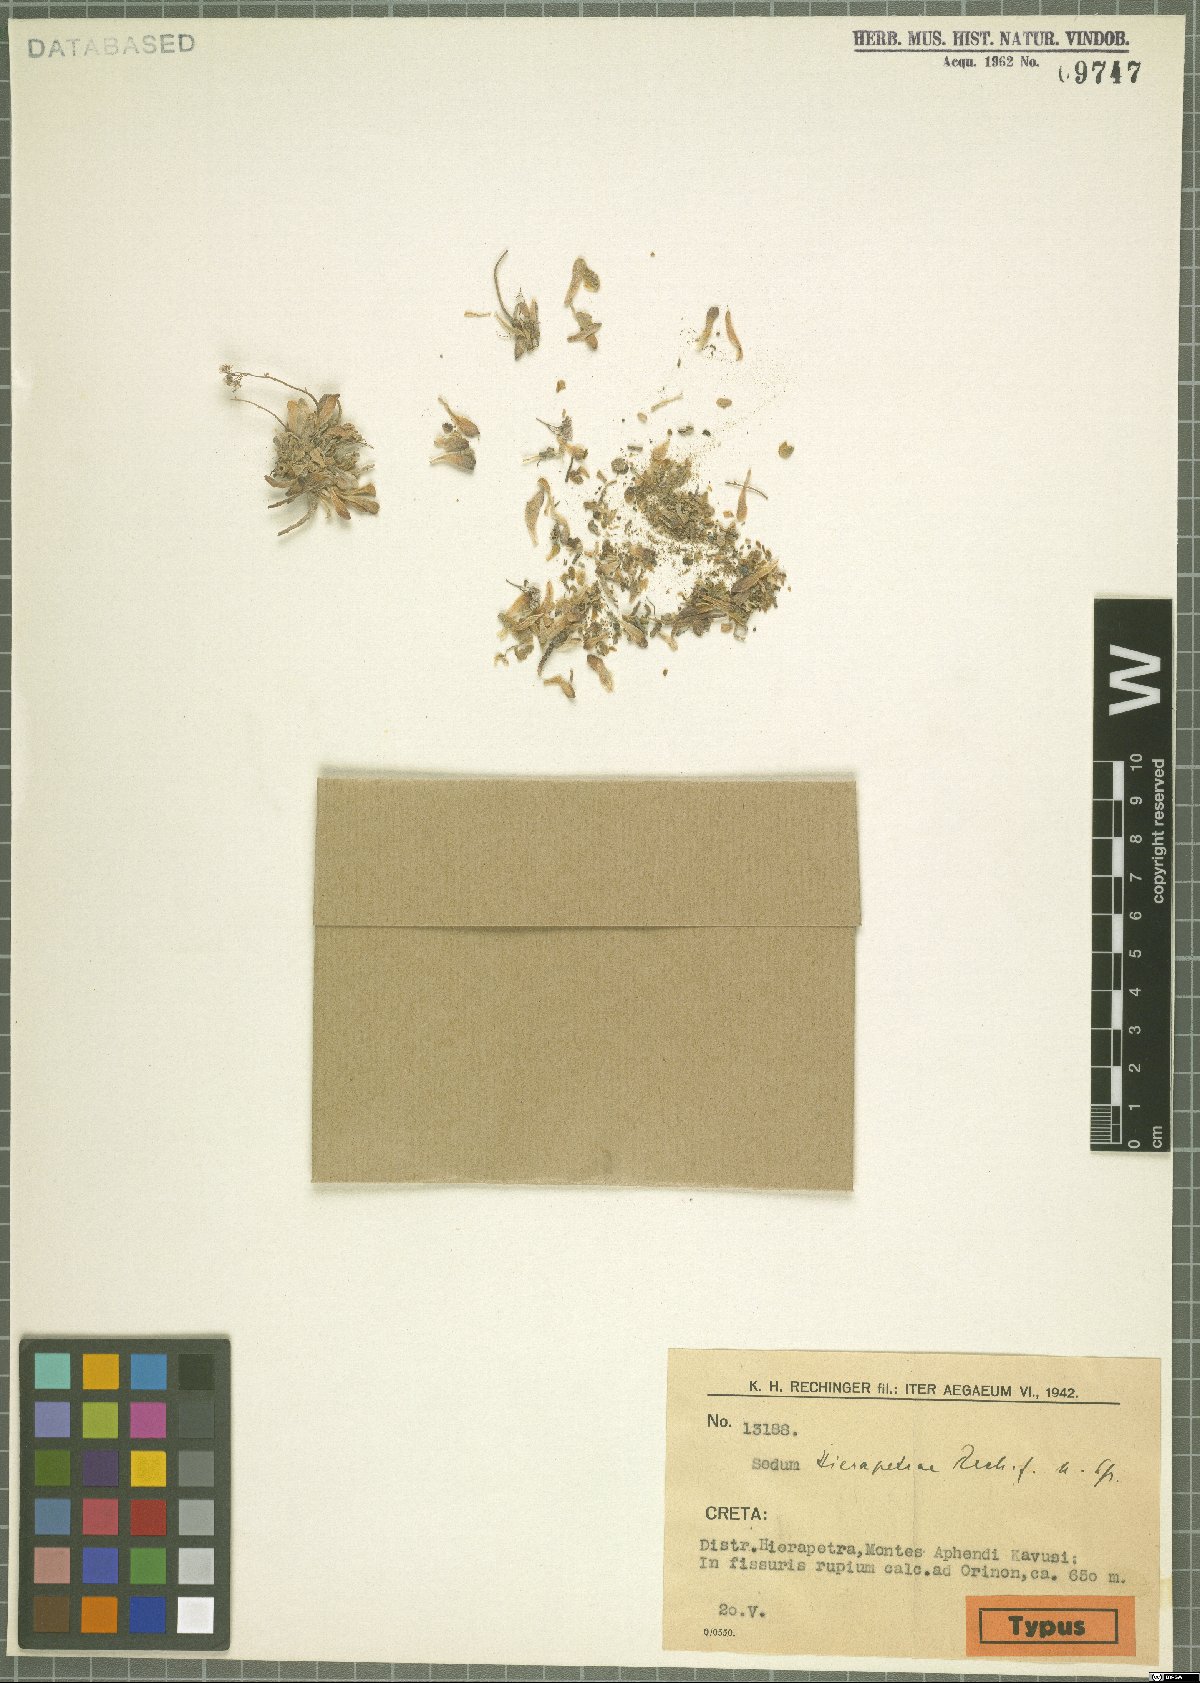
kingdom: Plantae
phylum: Tracheophyta
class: Magnoliopsida
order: Saxifragales
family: Crassulaceae
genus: Sedum
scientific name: Sedum creticum
